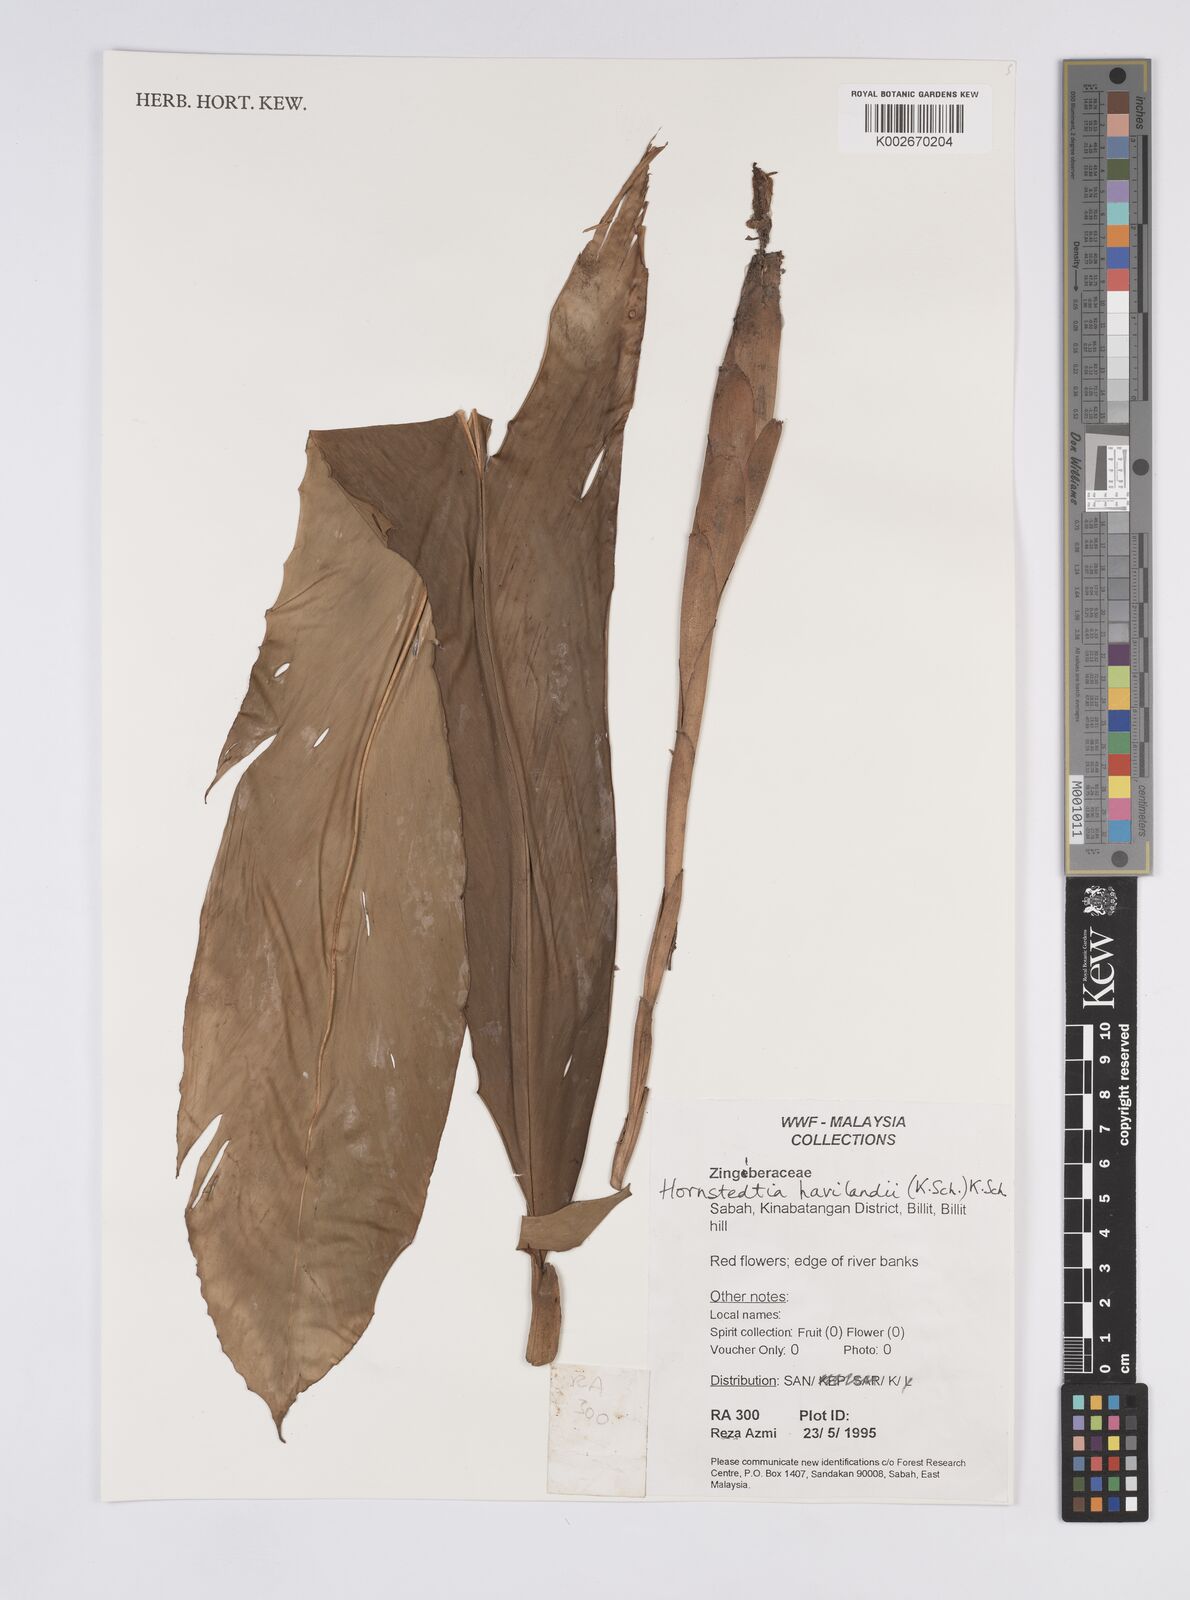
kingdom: Plantae
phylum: Tracheophyta
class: Liliopsida
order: Zingiberales
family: Zingiberaceae
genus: Hornstedtia
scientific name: Hornstedtia havilandii
